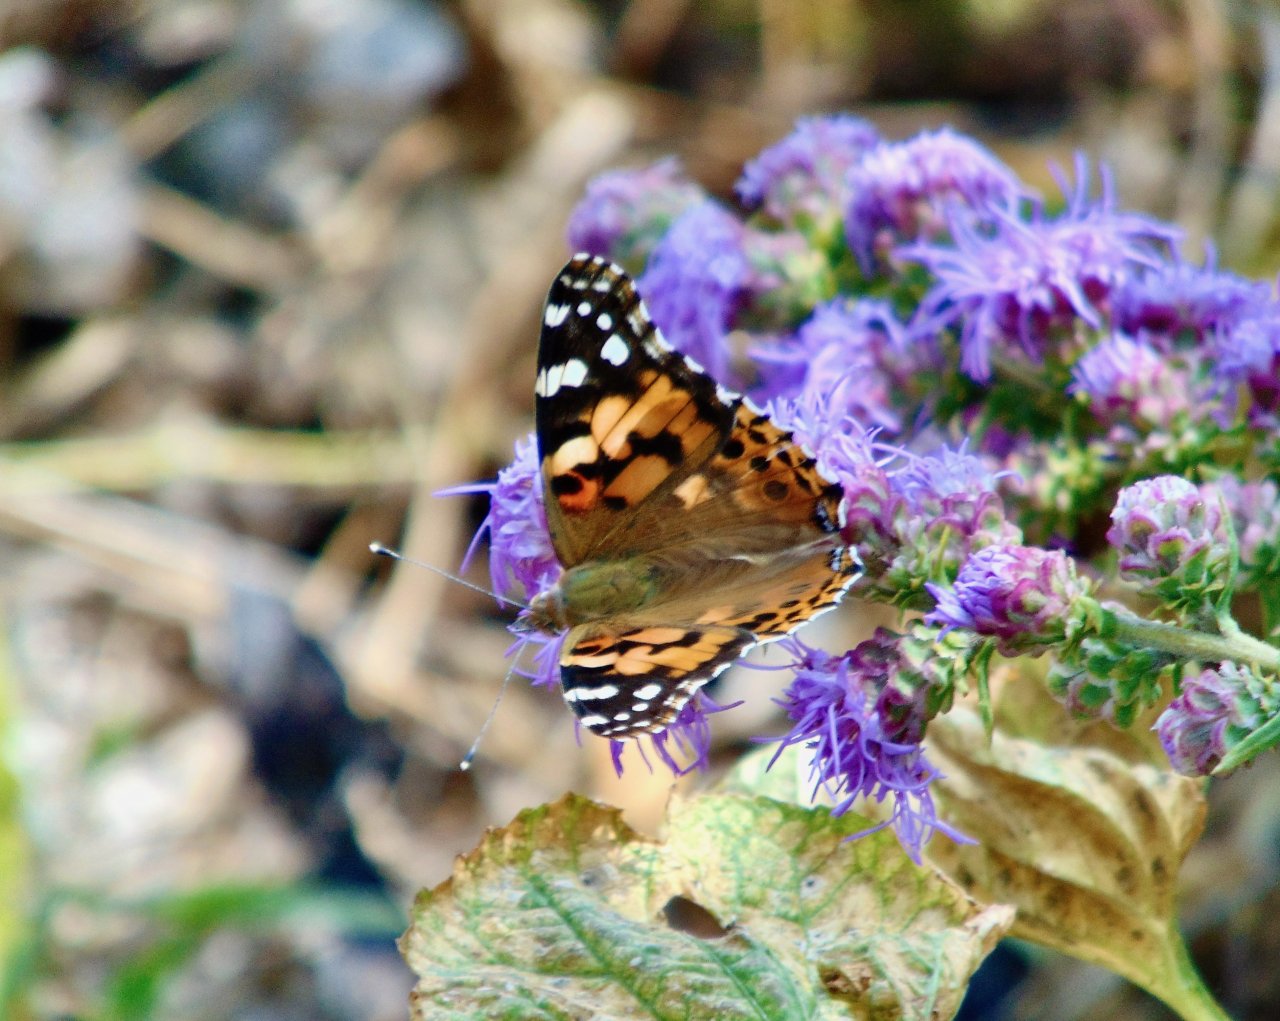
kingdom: Animalia
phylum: Arthropoda
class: Insecta
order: Lepidoptera
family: Nymphalidae
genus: Vanessa
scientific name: Vanessa cardui
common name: Painted Lady
